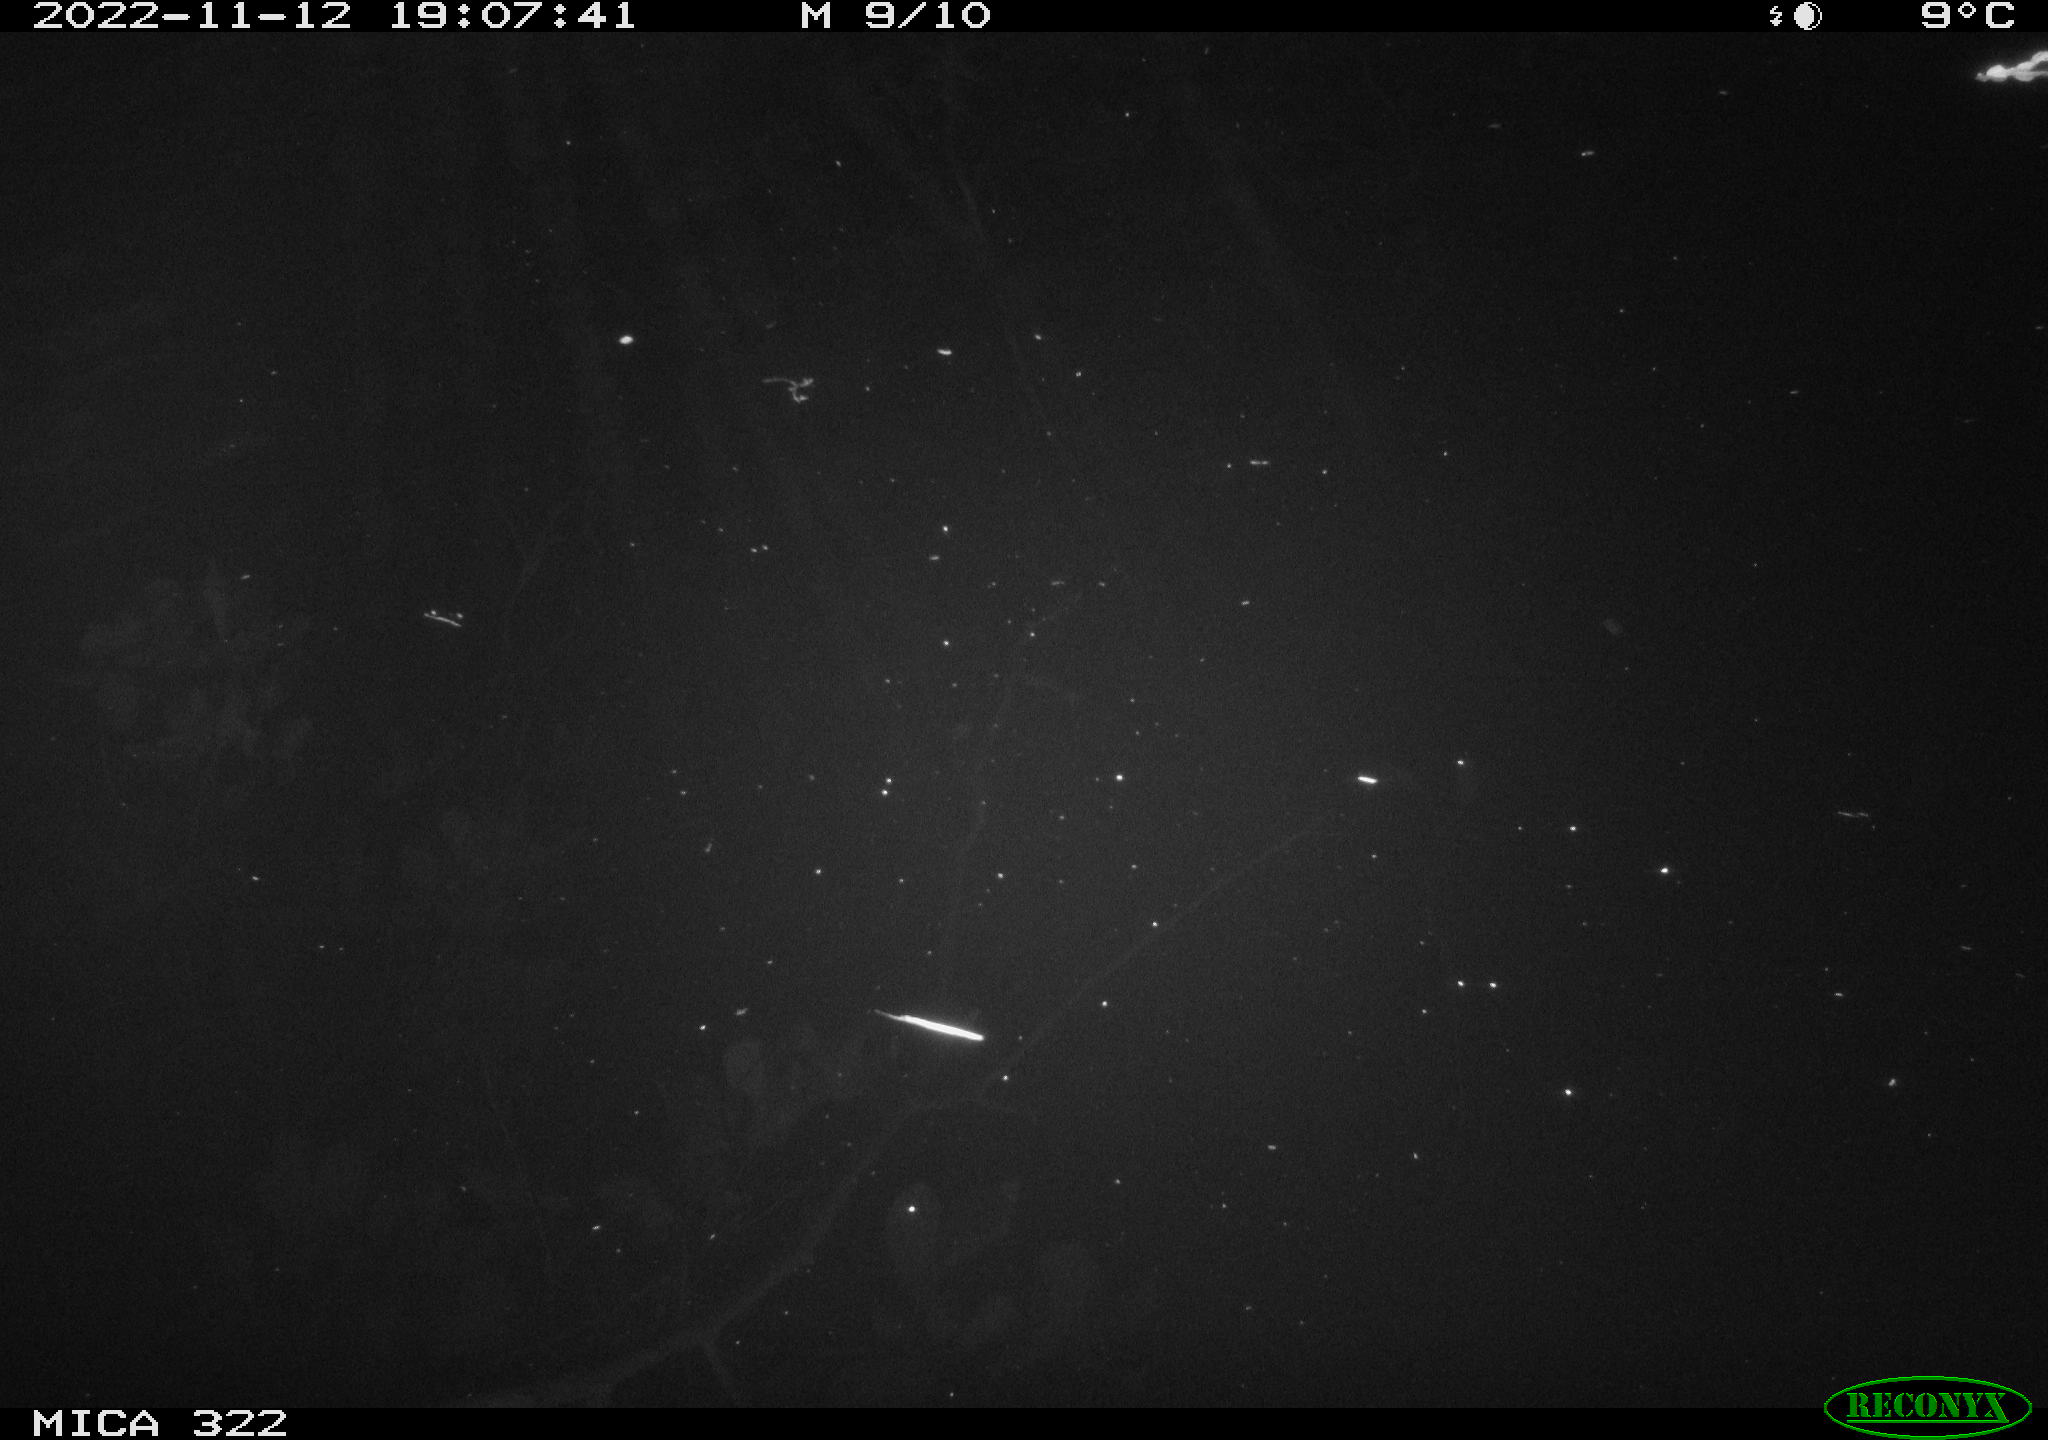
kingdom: Animalia
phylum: Chordata
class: Mammalia
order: Rodentia
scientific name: Rodentia
